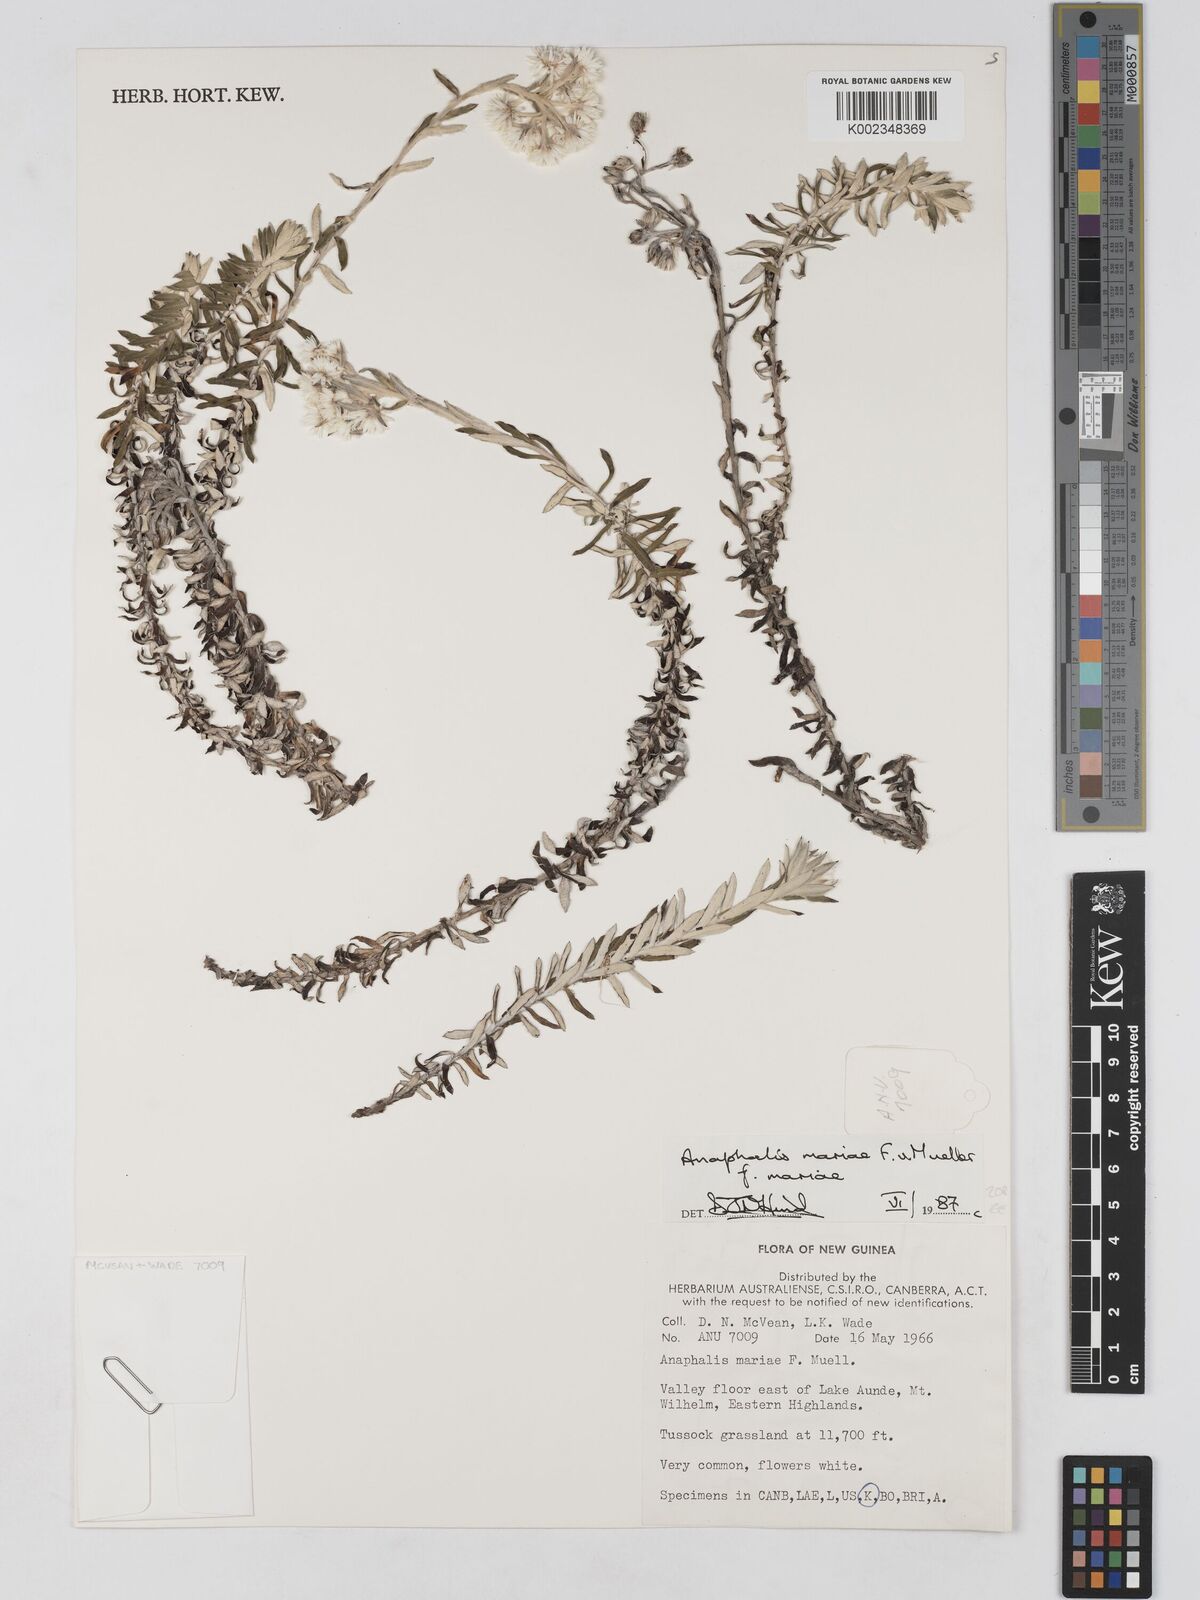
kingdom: Plantae
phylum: Tracheophyta
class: Magnoliopsida
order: Asterales
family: Asteraceae
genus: Anaphalioides
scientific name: Anaphalioides mariae
